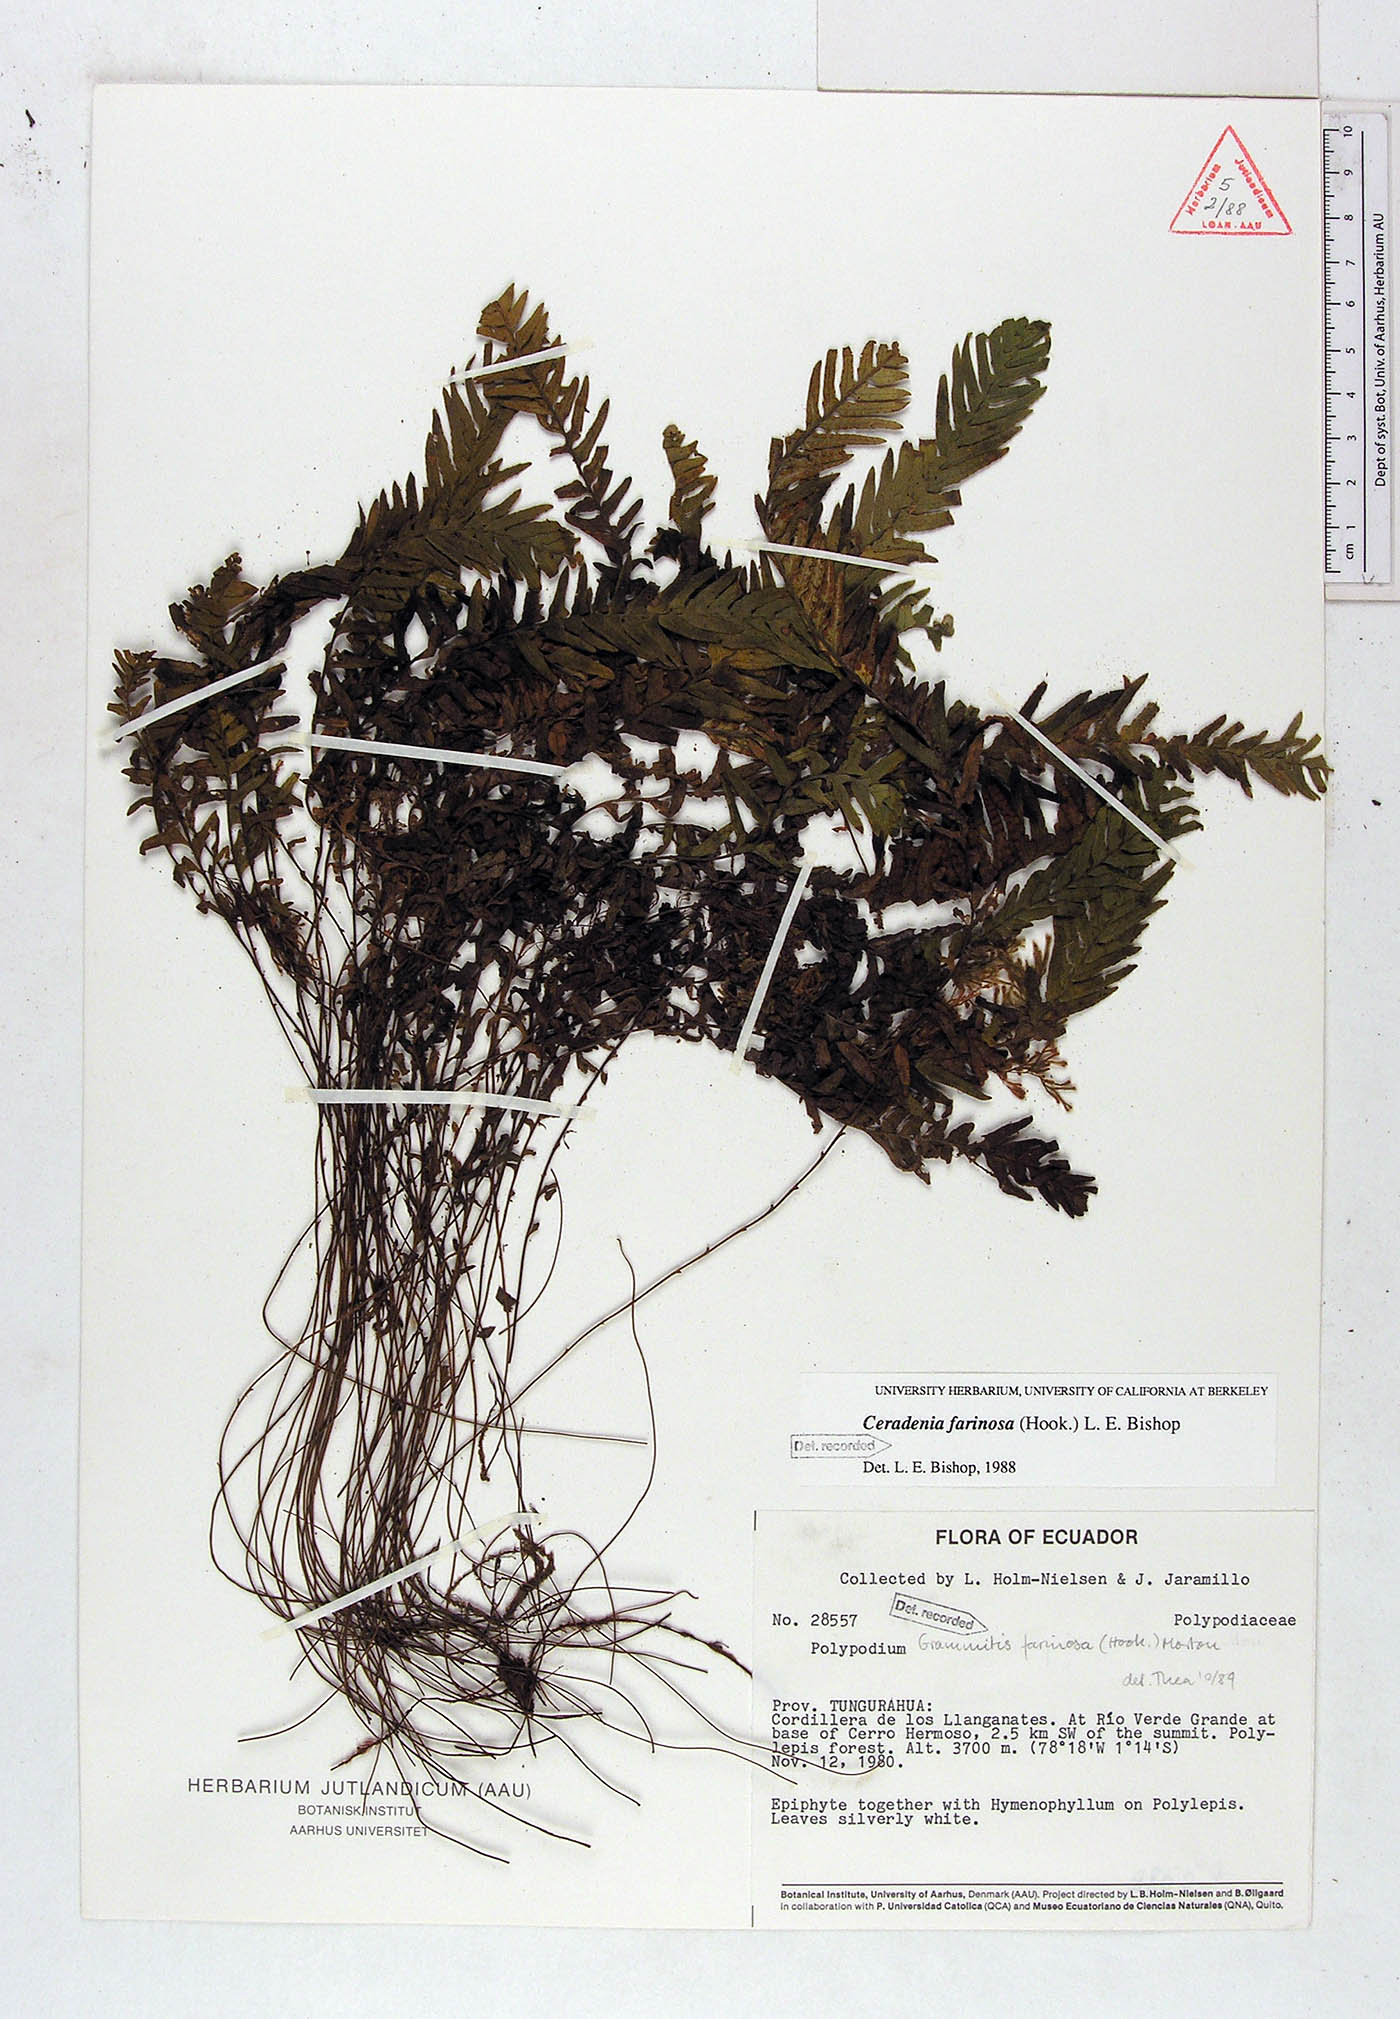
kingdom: Plantae
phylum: Tracheophyta
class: Polypodiopsida
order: Polypodiales
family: Polypodiaceae
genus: Ceradenia
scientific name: Ceradenia farinosa
